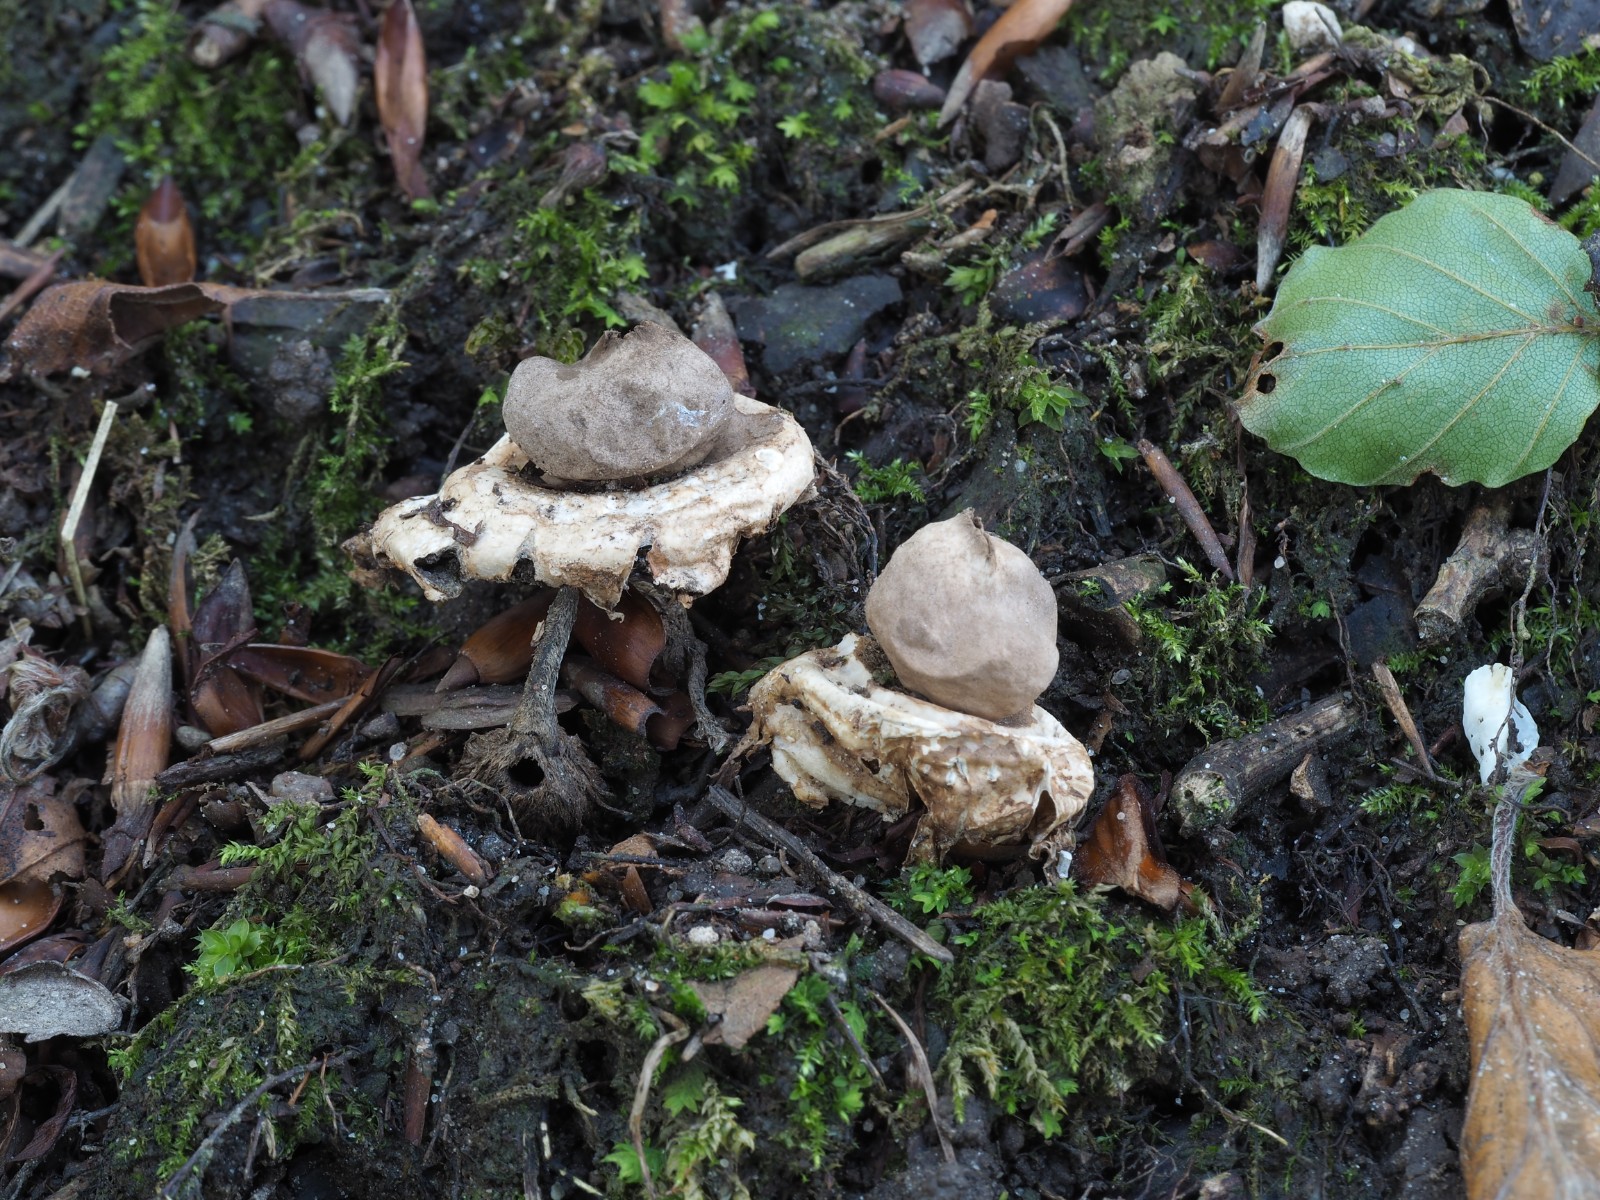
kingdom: Fungi
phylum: Basidiomycota
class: Agaricomycetes
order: Geastrales
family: Geastraceae
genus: Geastrum
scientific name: Geastrum fimbriatum
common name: frynset stjernebold
